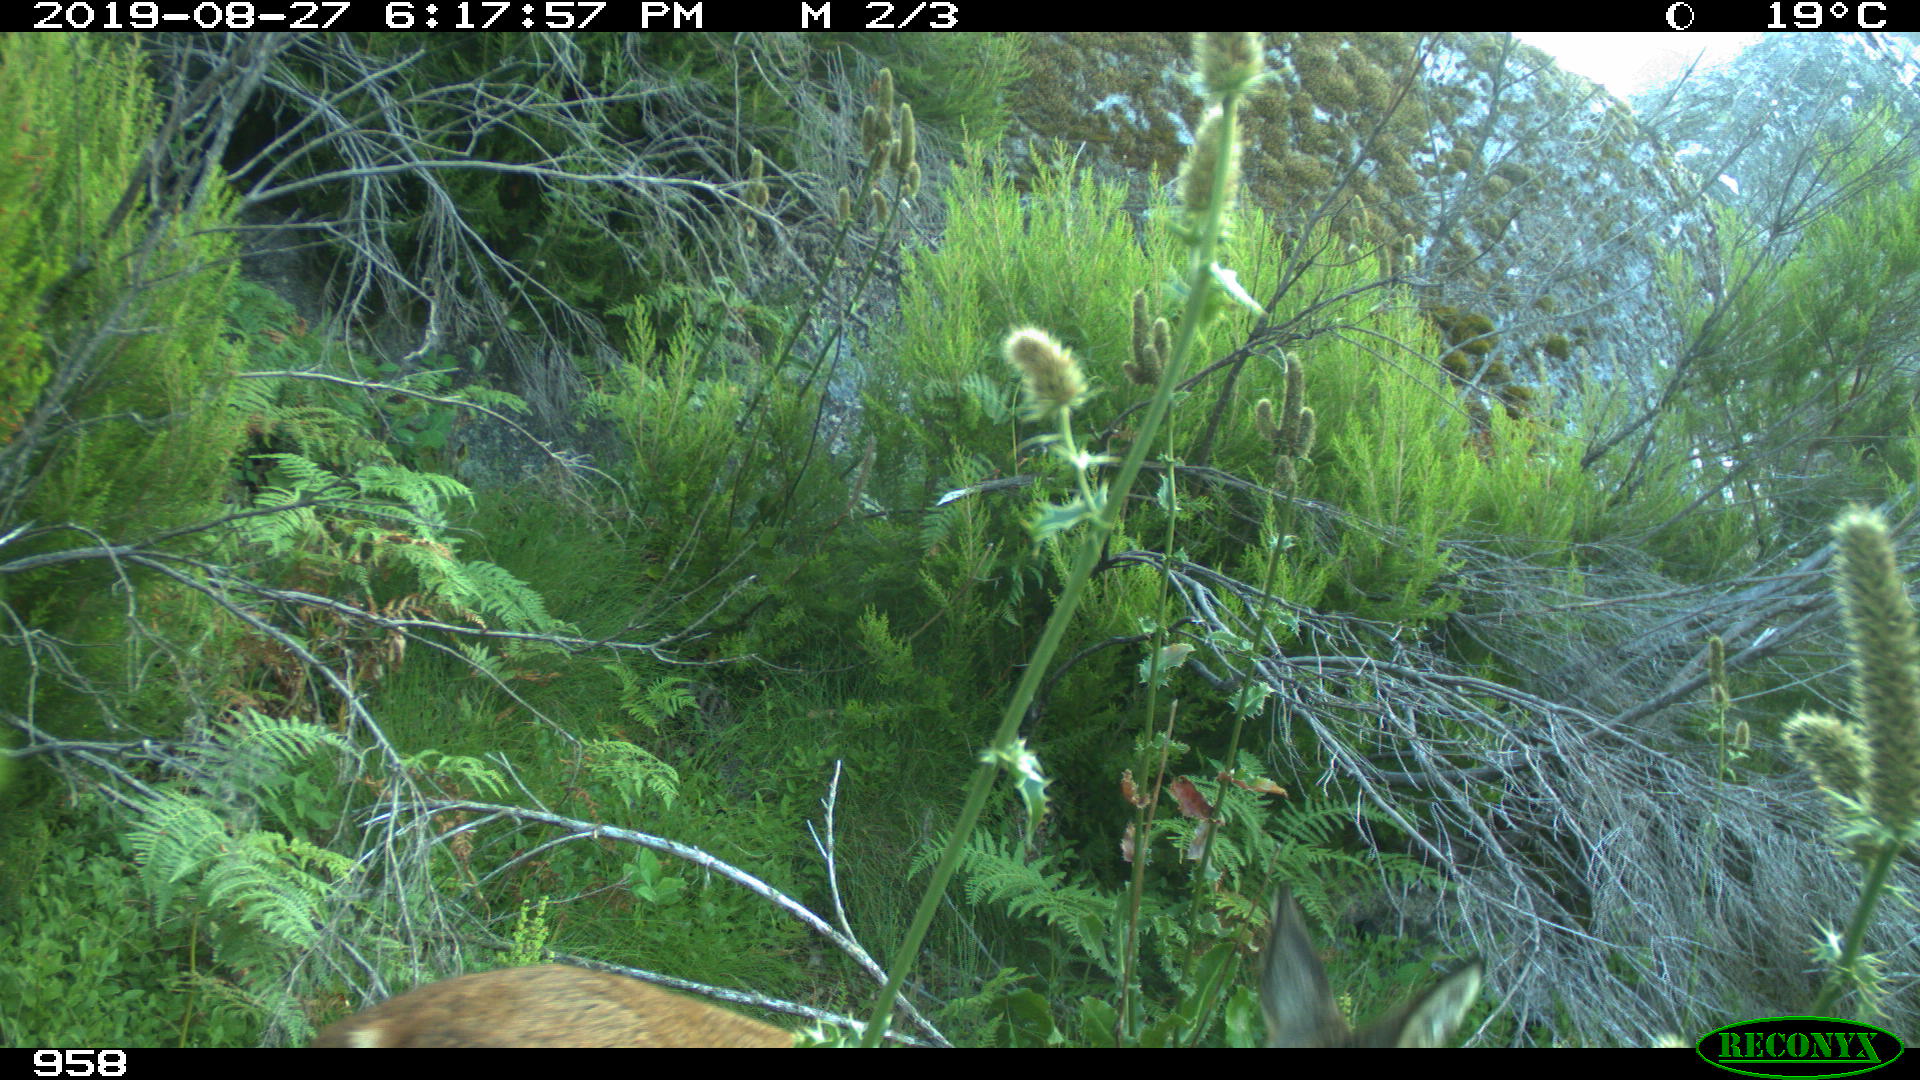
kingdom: Animalia
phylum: Chordata
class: Mammalia
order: Artiodactyla
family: Cervidae
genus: Capreolus
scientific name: Capreolus capreolus
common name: Western roe deer
